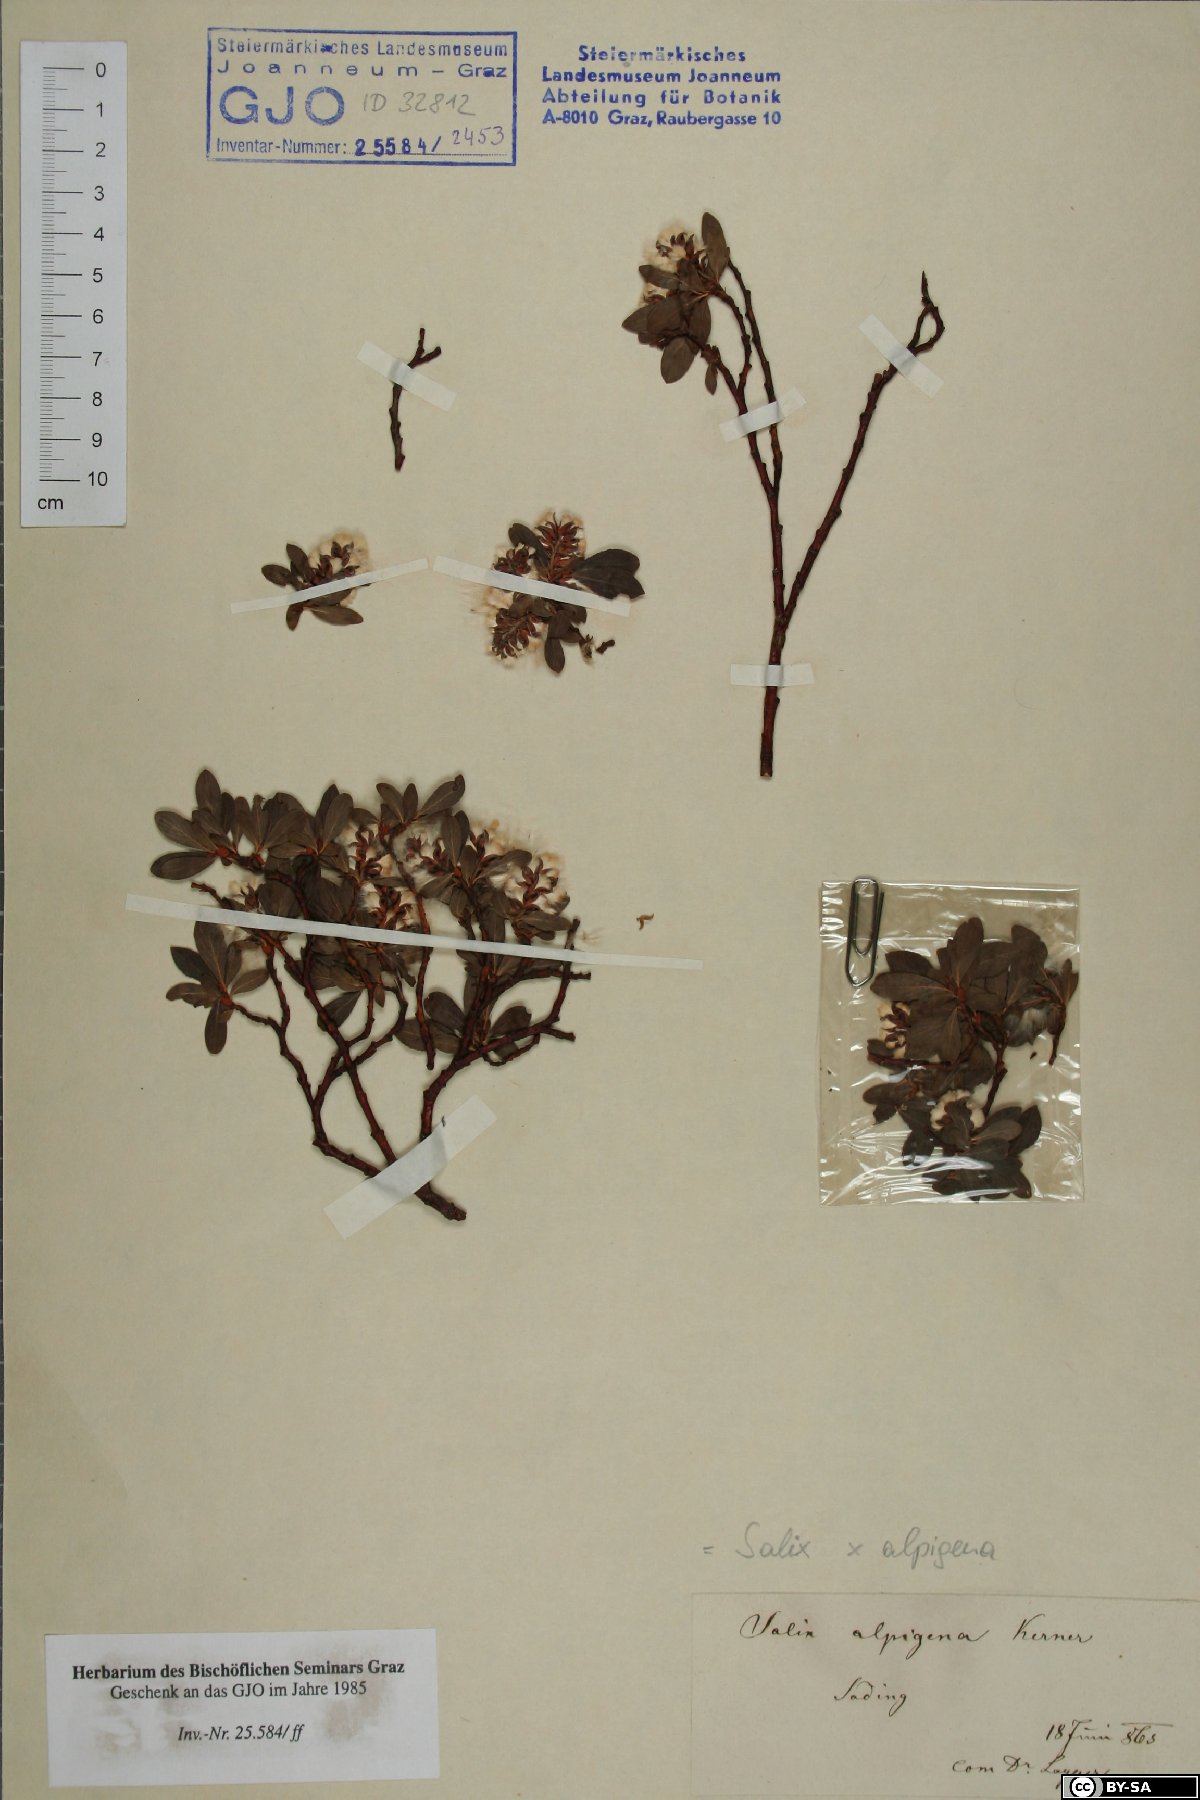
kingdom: Plantae
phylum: Tracheophyta
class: Magnoliopsida
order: Malpighiales
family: Salicaceae
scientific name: Salicaceae
